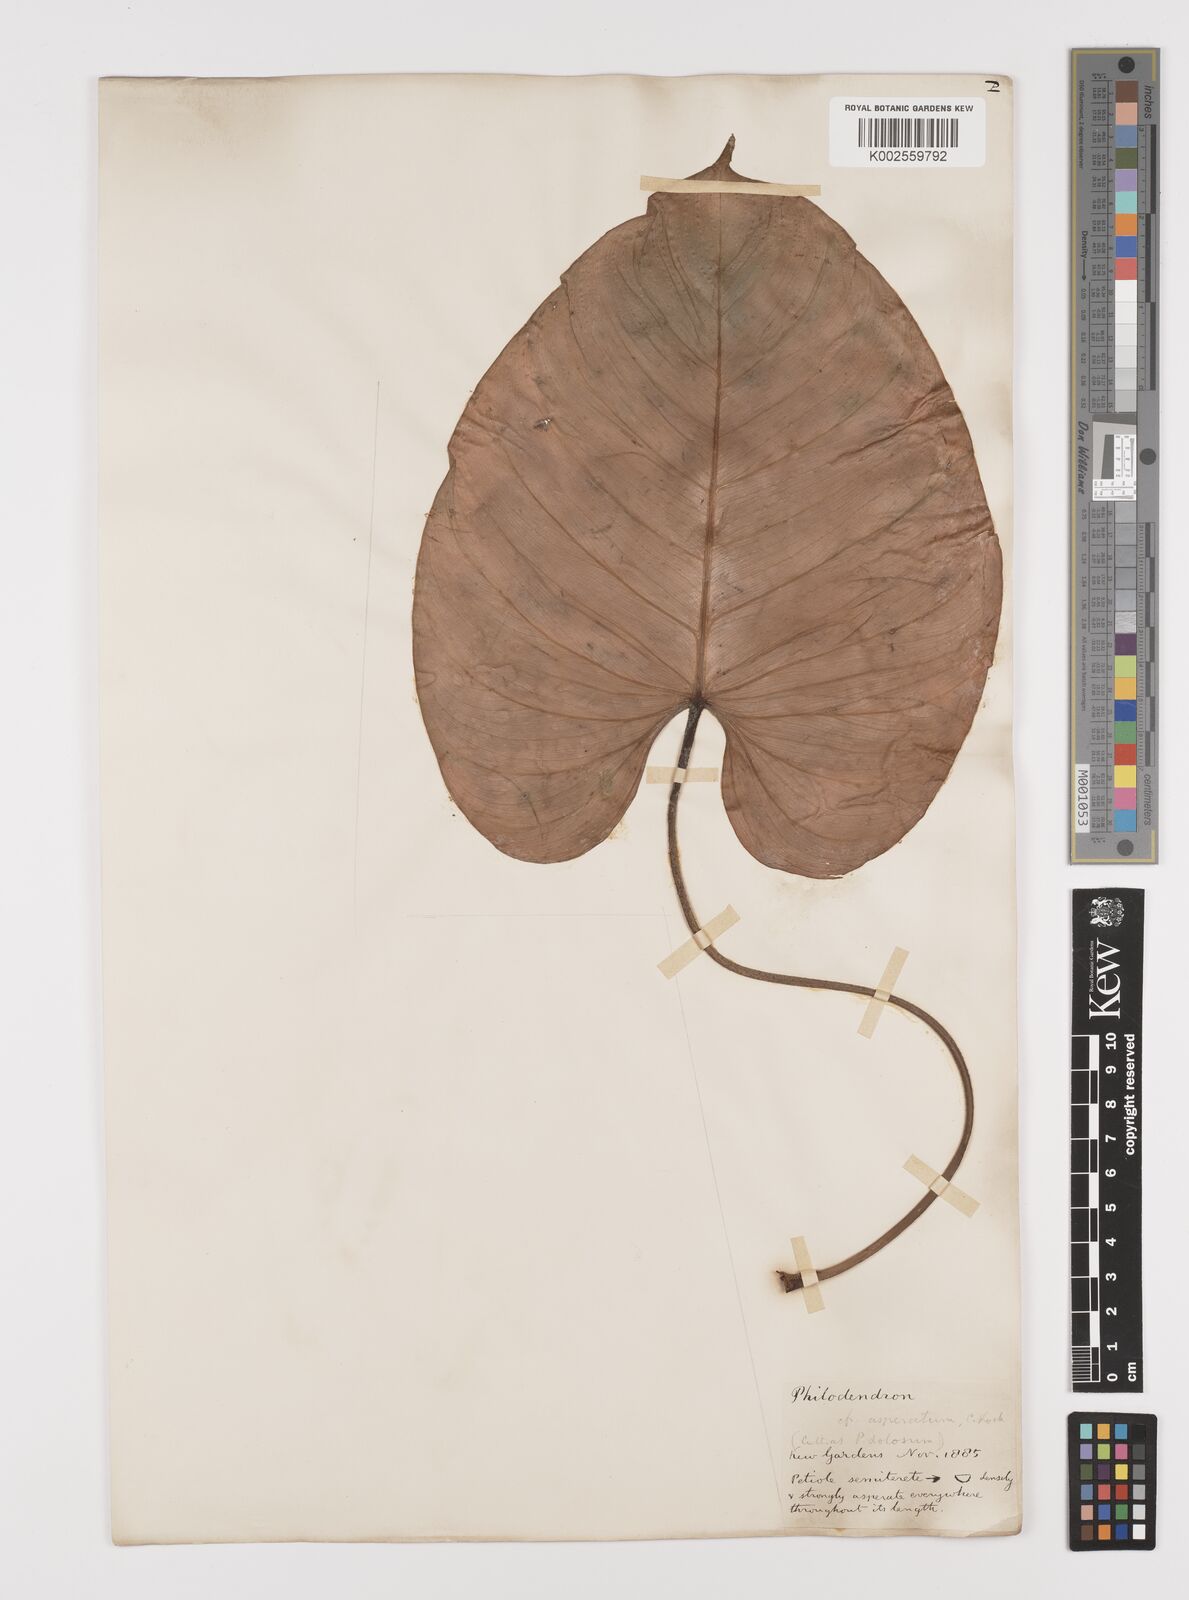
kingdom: Plantae
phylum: Tracheophyta
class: Liliopsida
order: Alismatales
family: Araceae
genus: Philodendron
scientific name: Philodendron ornatum
